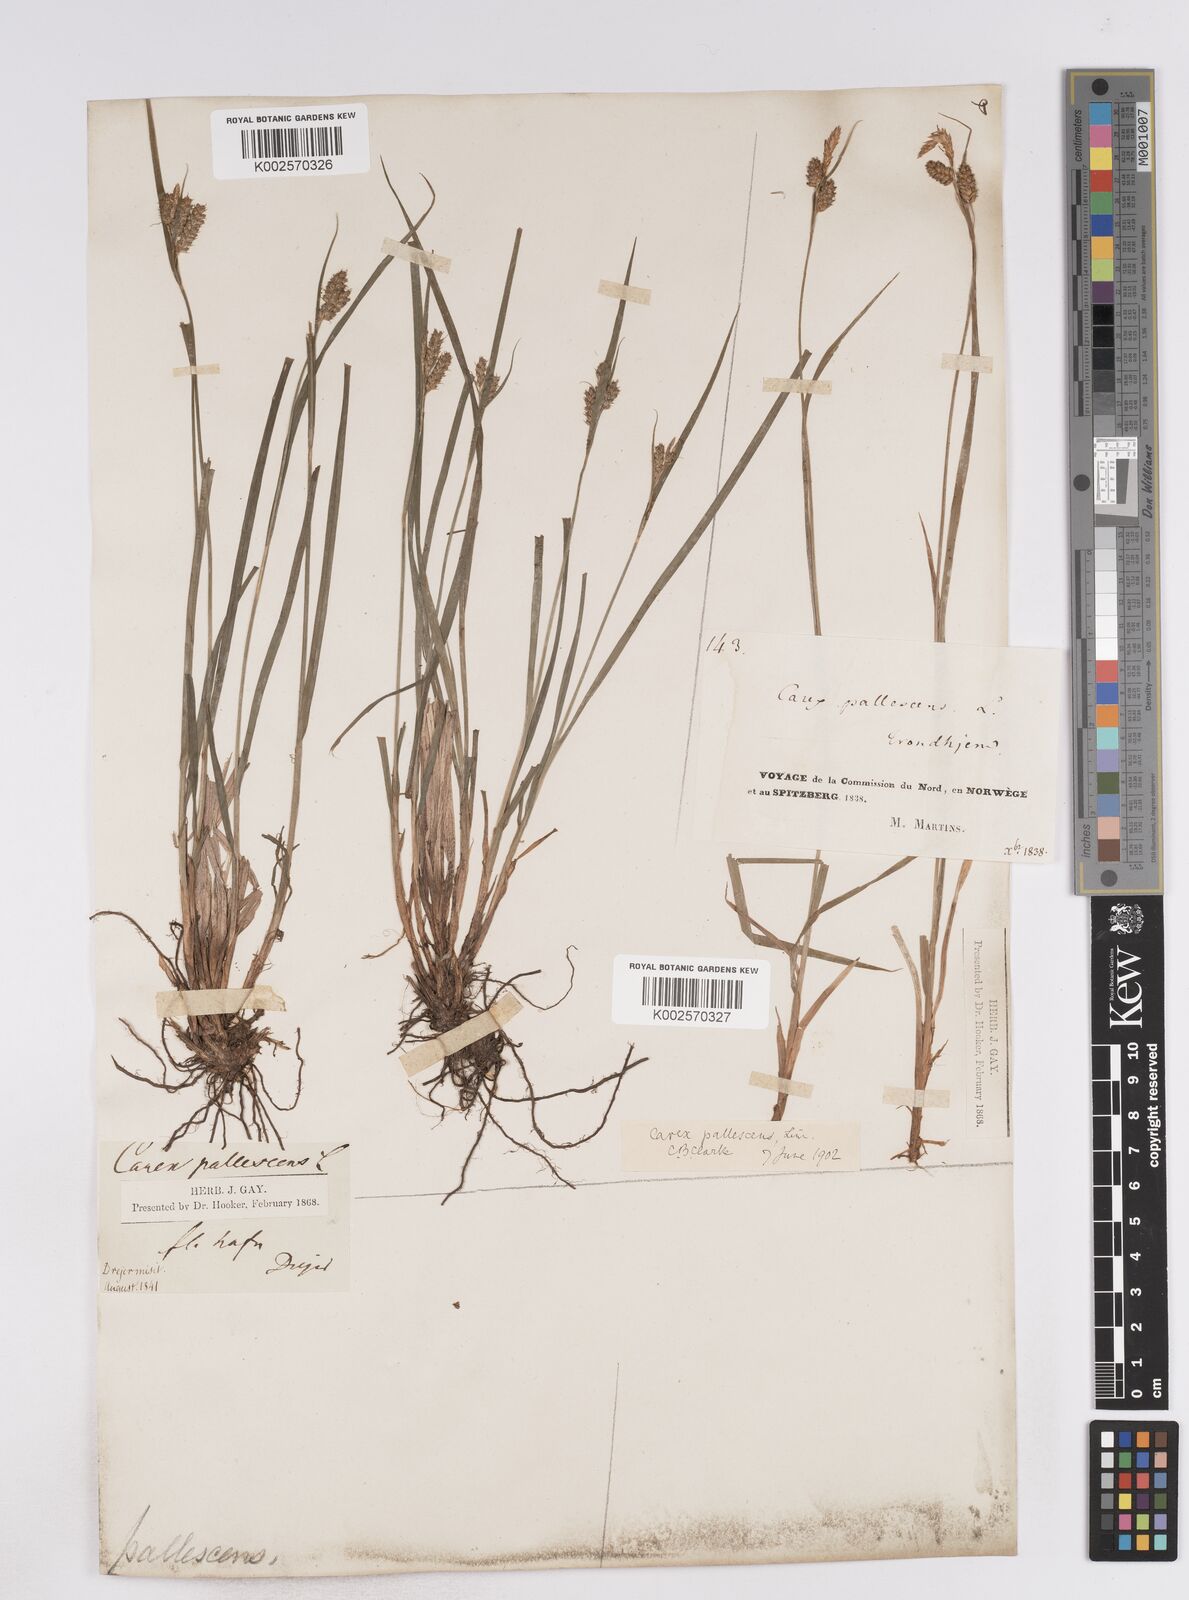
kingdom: Plantae
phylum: Tracheophyta
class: Liliopsida
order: Poales
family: Cyperaceae
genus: Carex
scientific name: Carex pallescens
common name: Pale sedge
